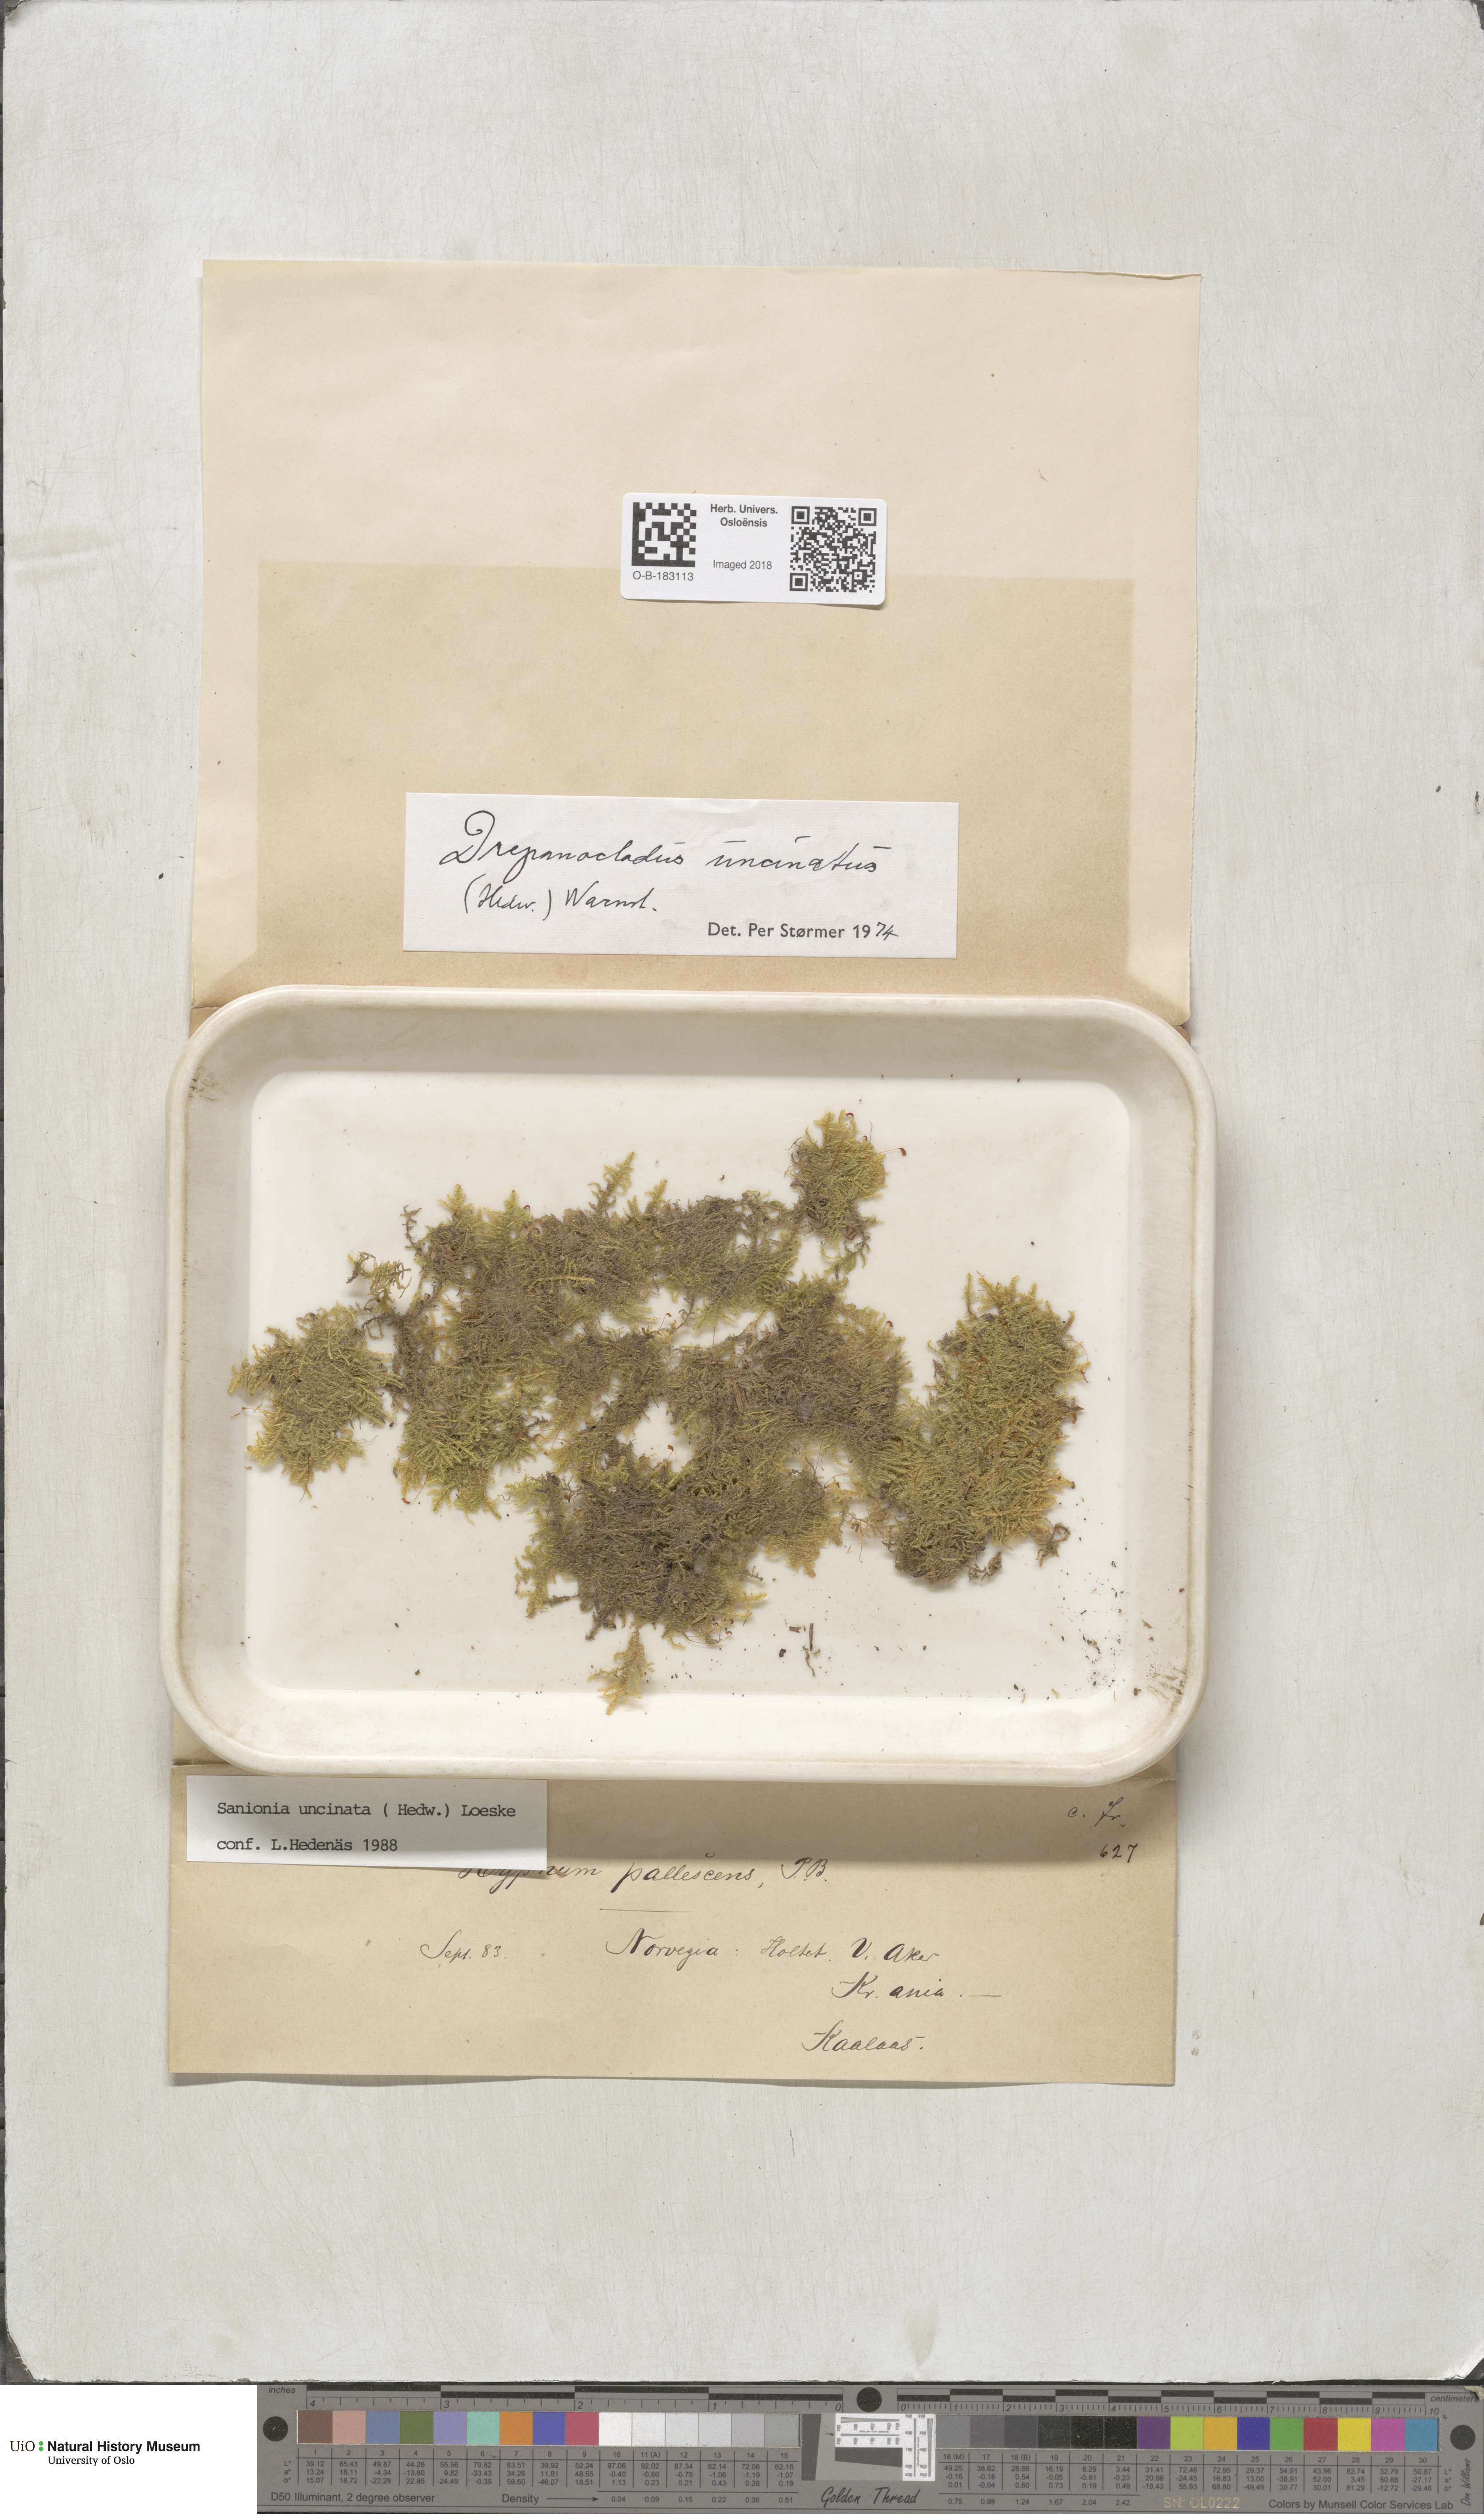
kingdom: Plantae
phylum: Bryophyta
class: Bryopsida
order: Hypnales
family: Scorpidiaceae
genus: Sanionia
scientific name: Sanionia uncinata
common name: Sickle moss
